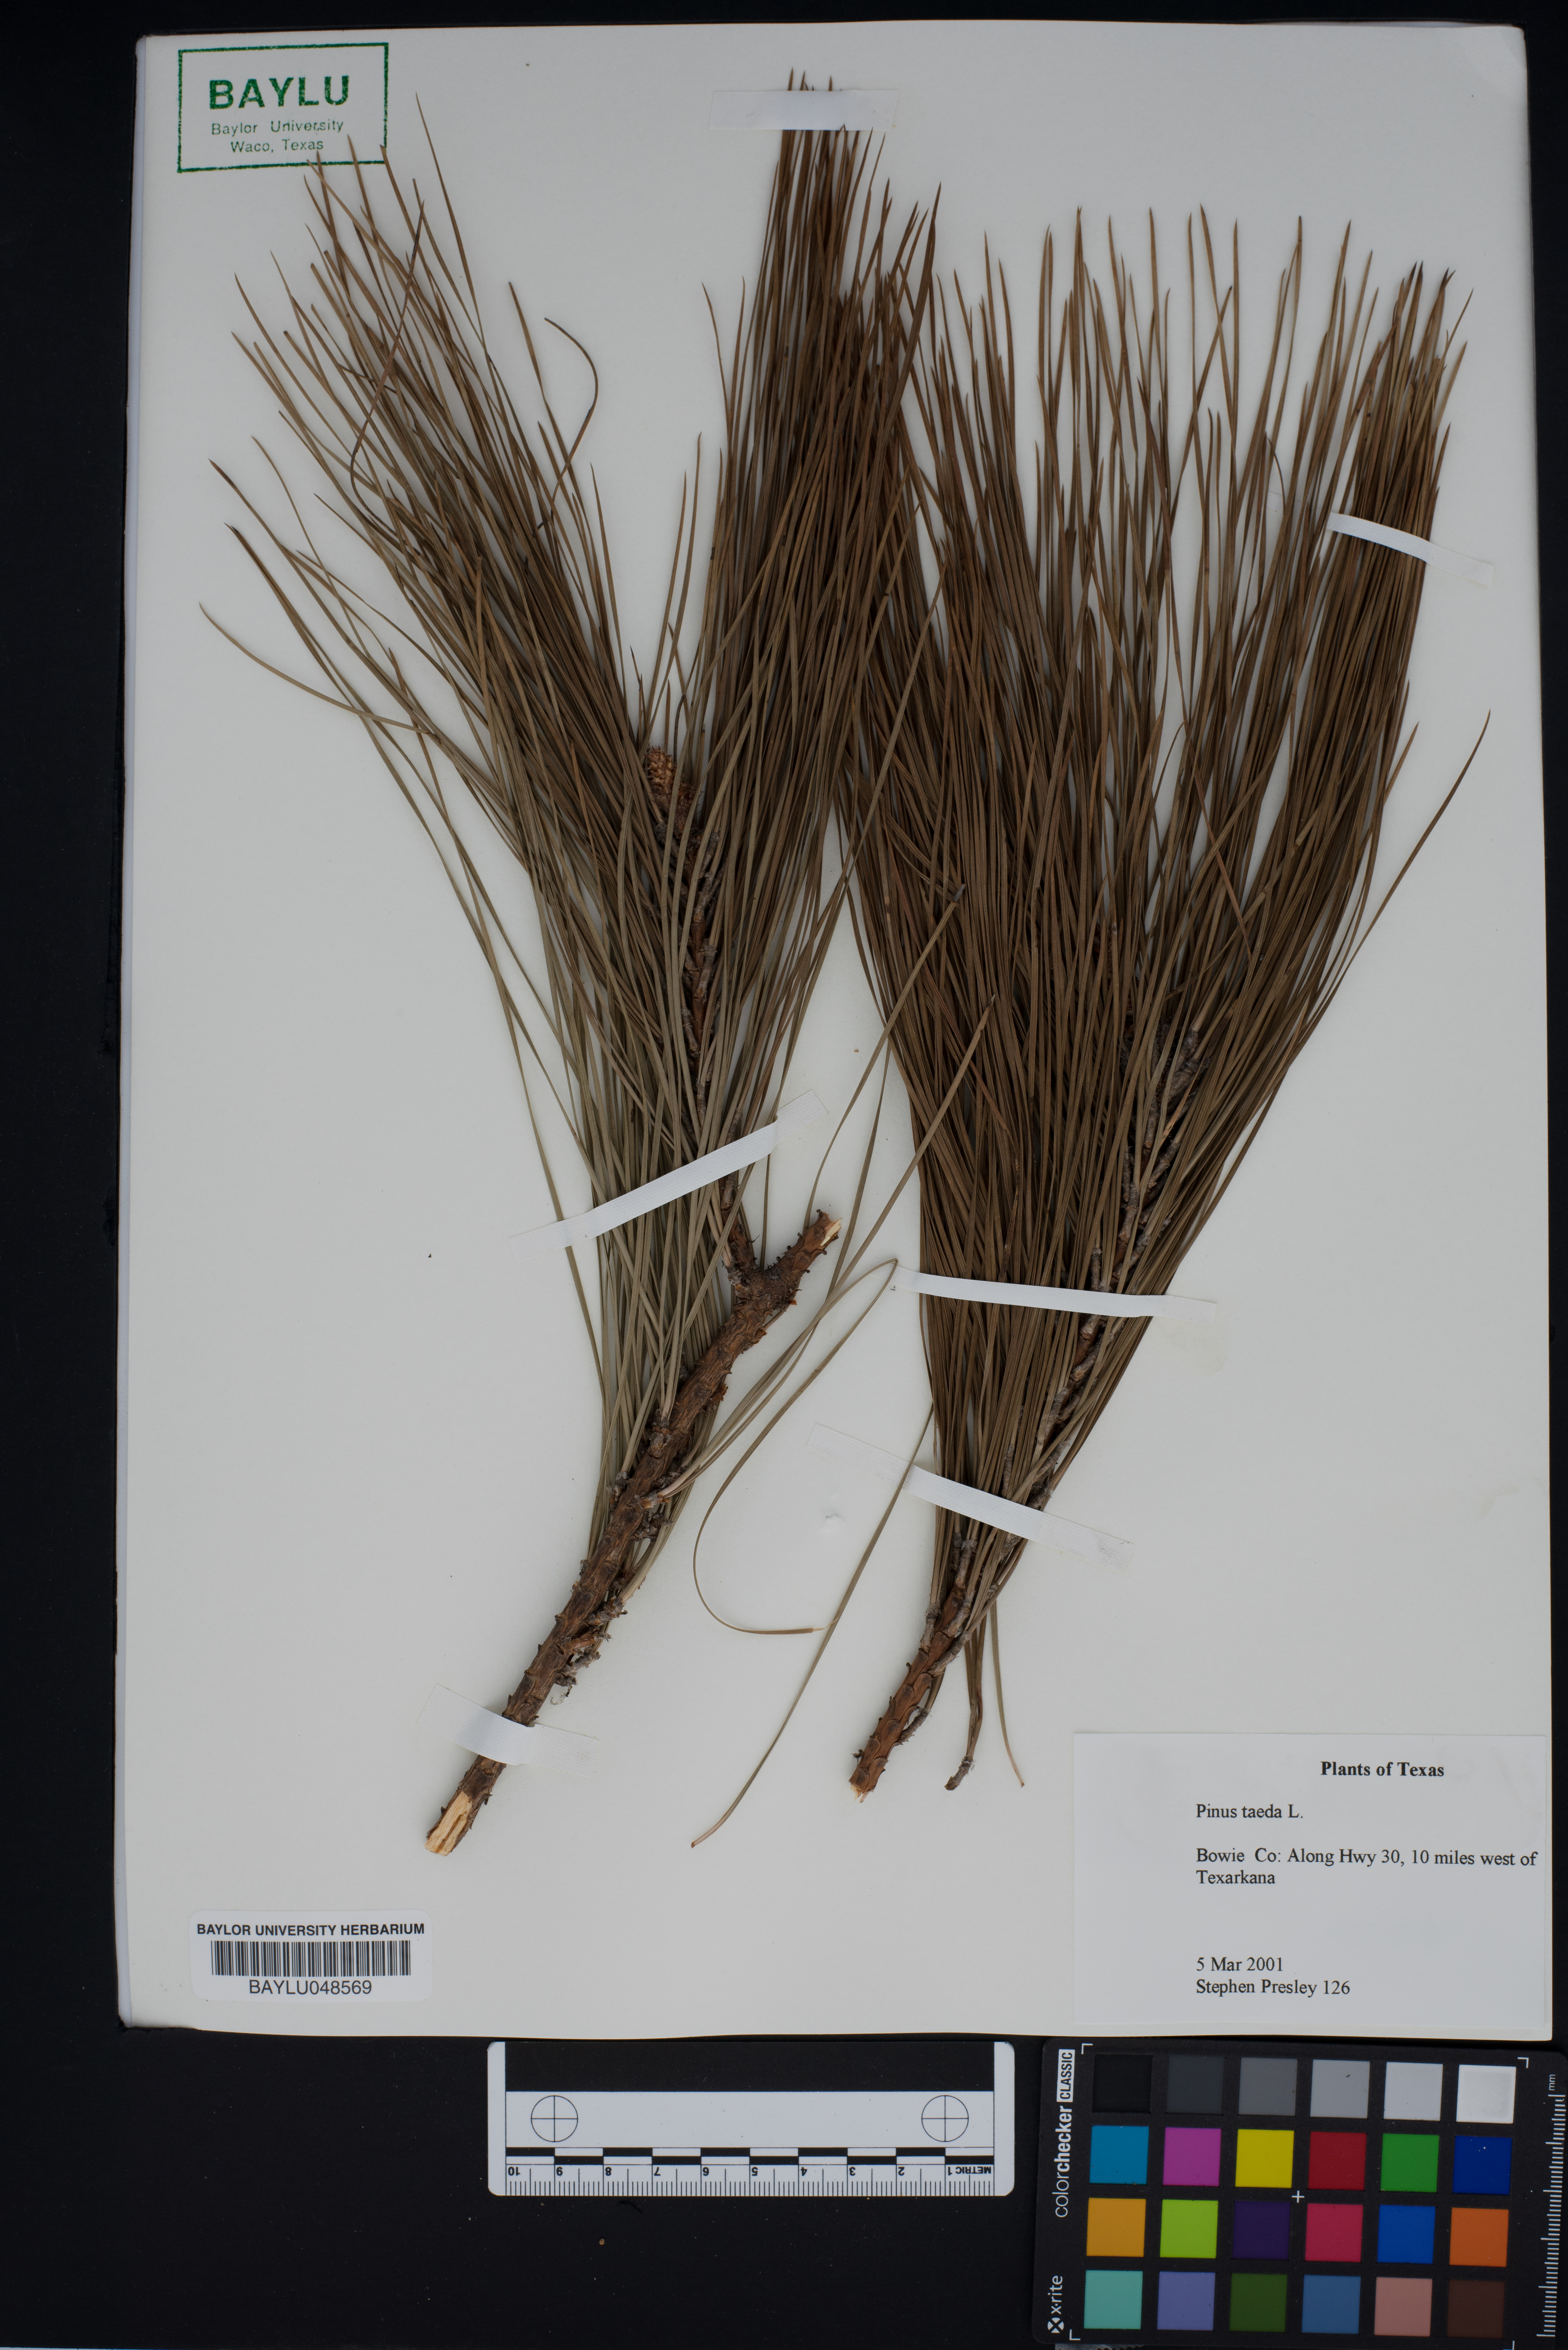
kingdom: Plantae
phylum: Tracheophyta
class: Pinopsida
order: Pinales
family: Pinaceae
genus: Pinus
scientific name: Pinus taeda
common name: Loblolly pine
